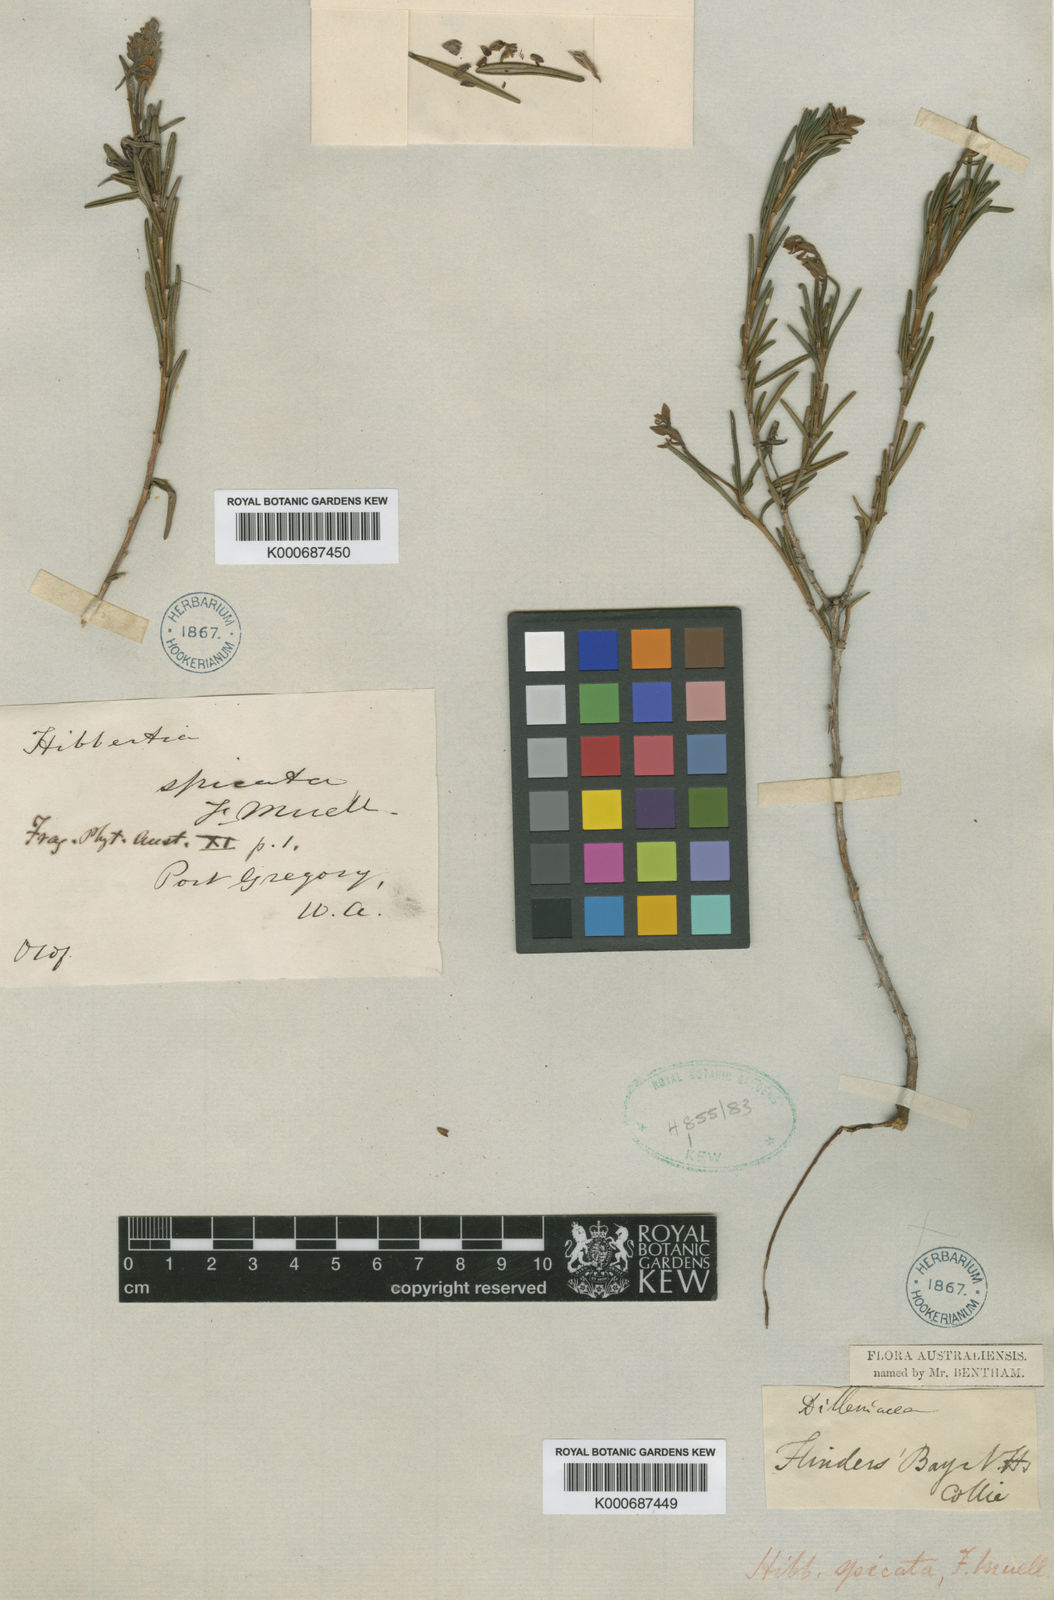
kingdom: Plantae
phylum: Tracheophyta
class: Magnoliopsida
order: Dilleniales
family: Dilleniaceae
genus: Hibbertia
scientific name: Hibbertia spicata
